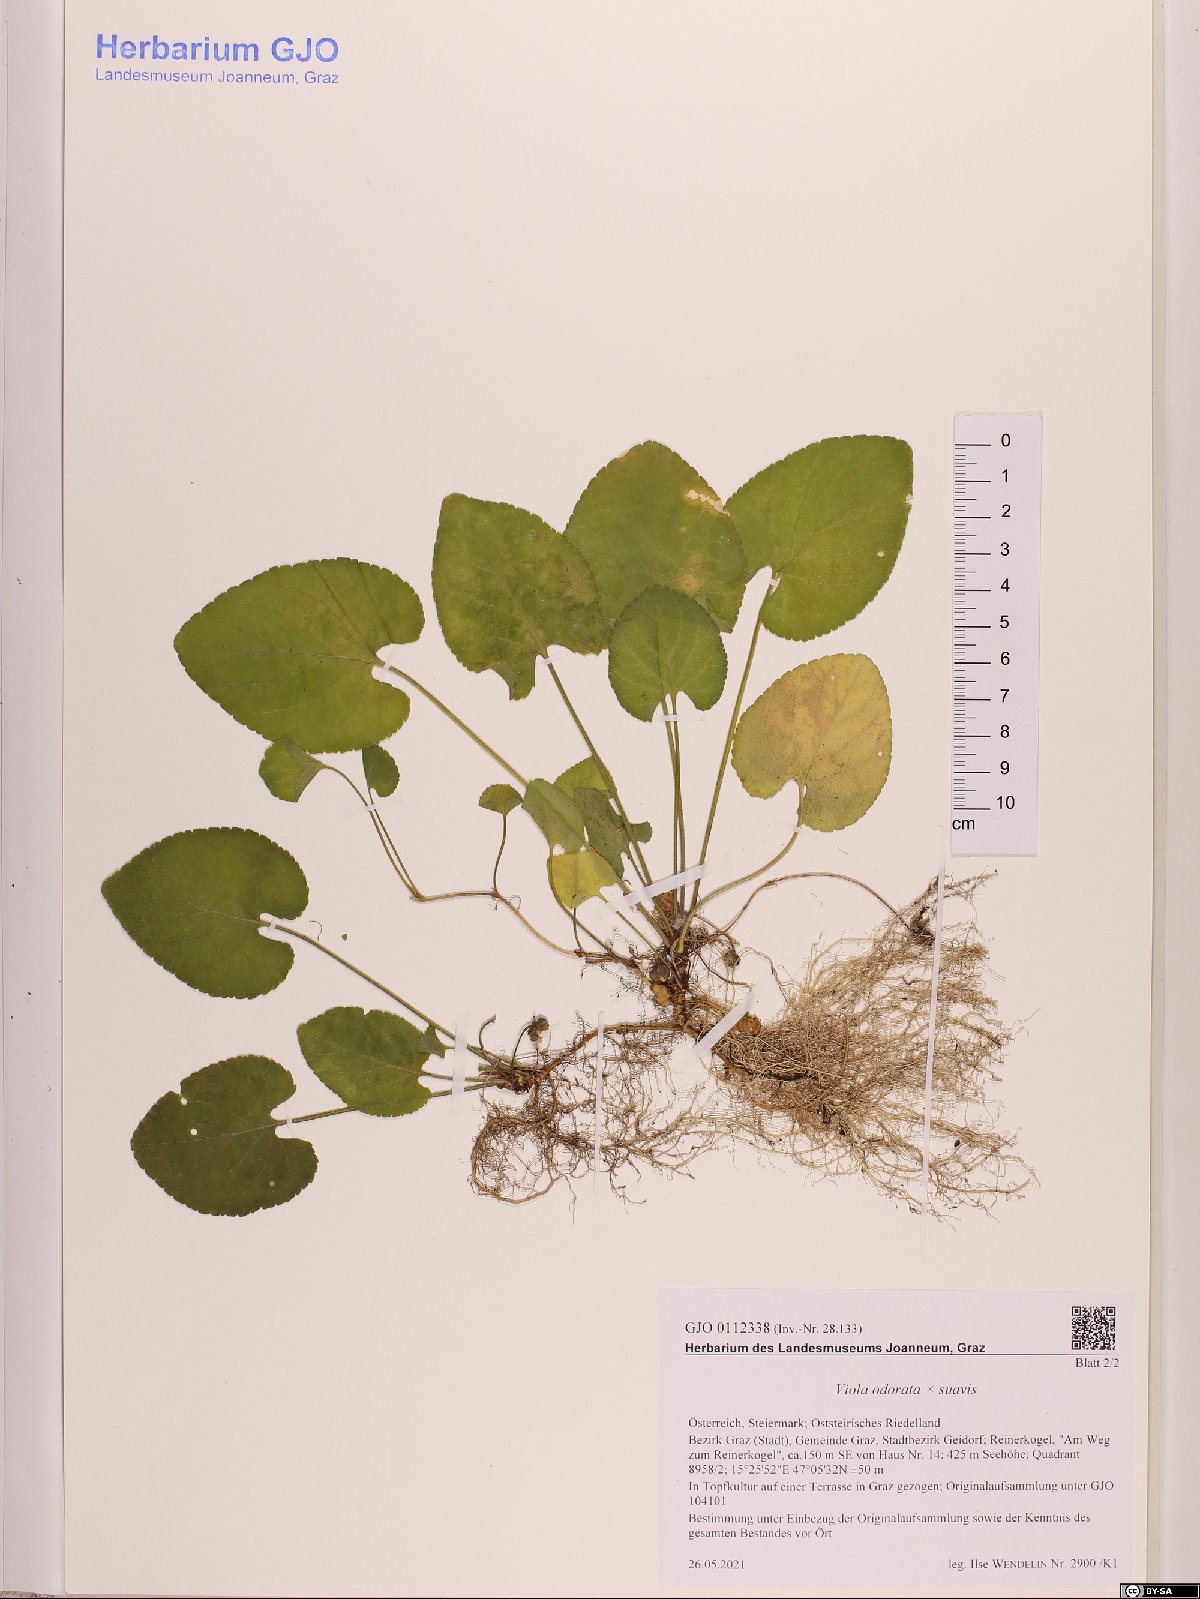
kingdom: Plantae
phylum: Tracheophyta
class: Magnoliopsida
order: Malpighiales
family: Violaceae
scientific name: Violaceae
